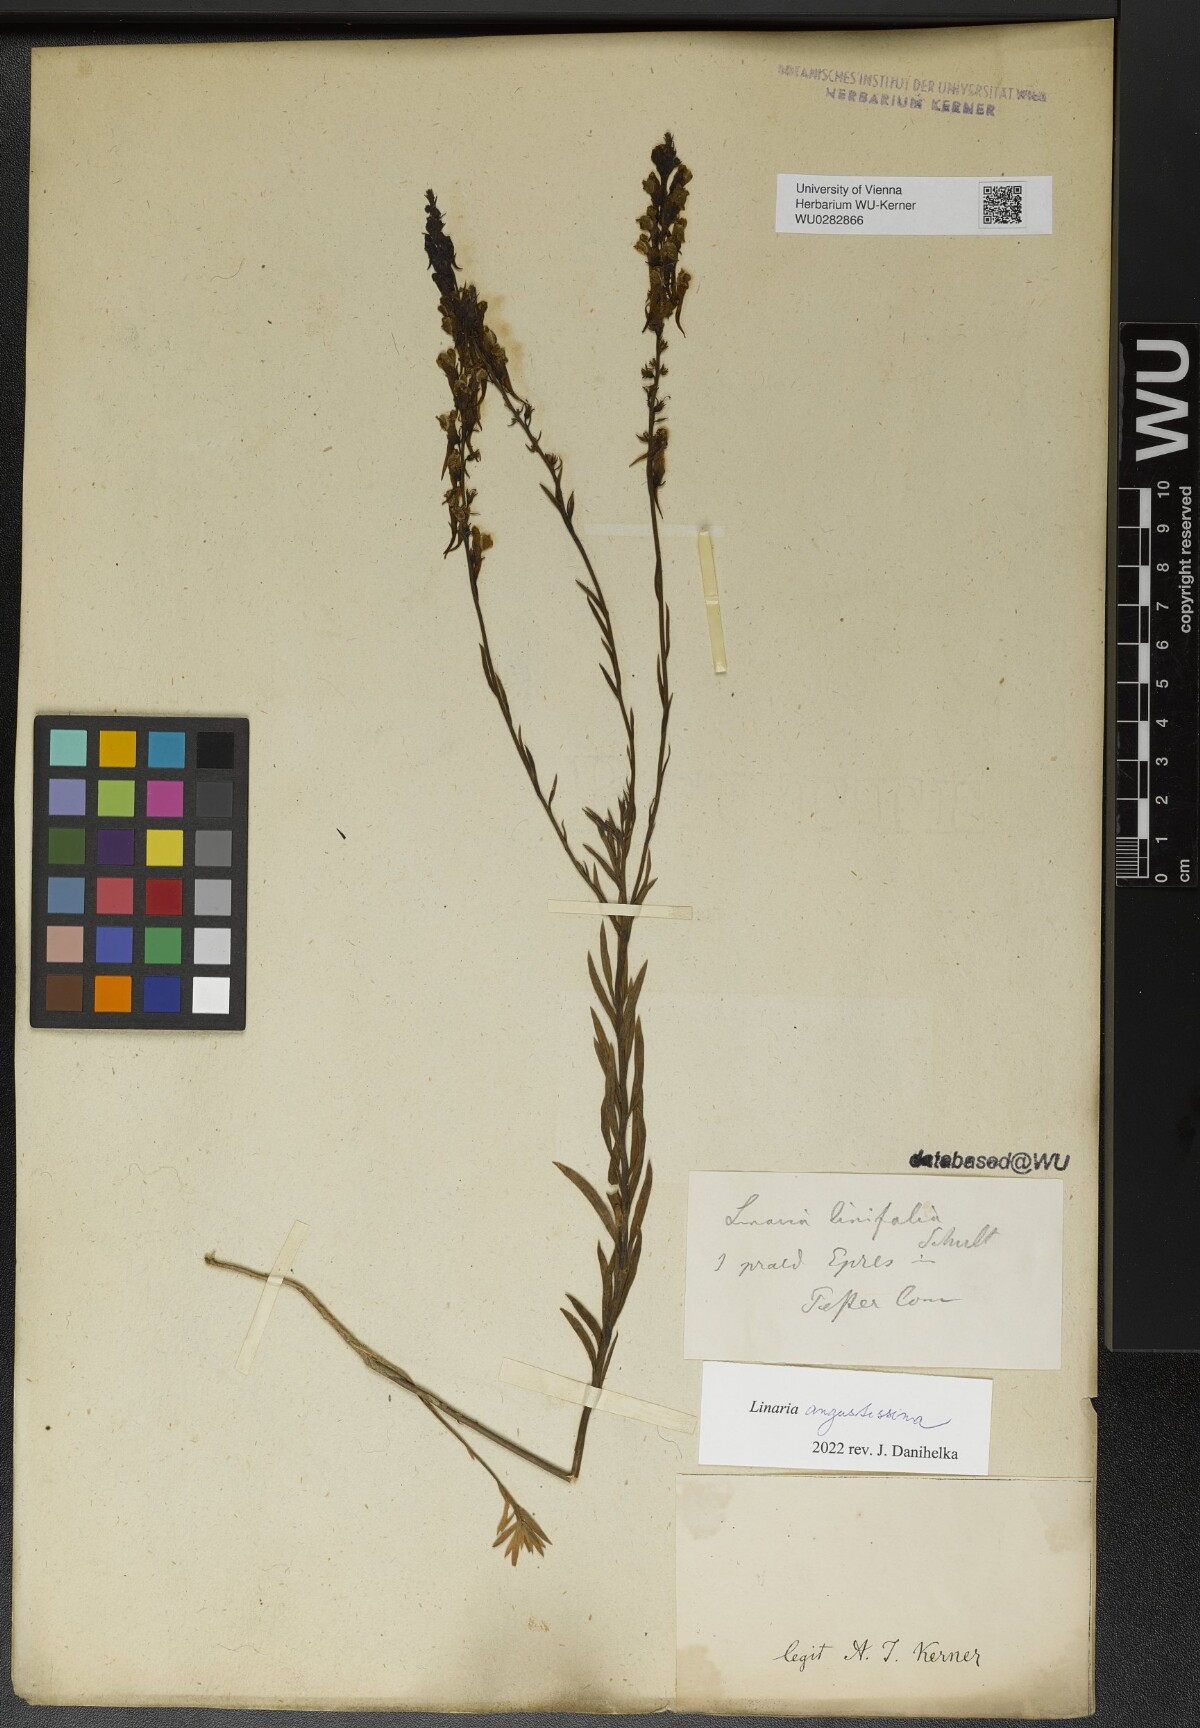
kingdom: Plantae
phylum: Tracheophyta
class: Magnoliopsida
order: Lamiales
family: Plantaginaceae
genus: Linaria
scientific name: Linaria angustissima
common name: Italian toadflax
